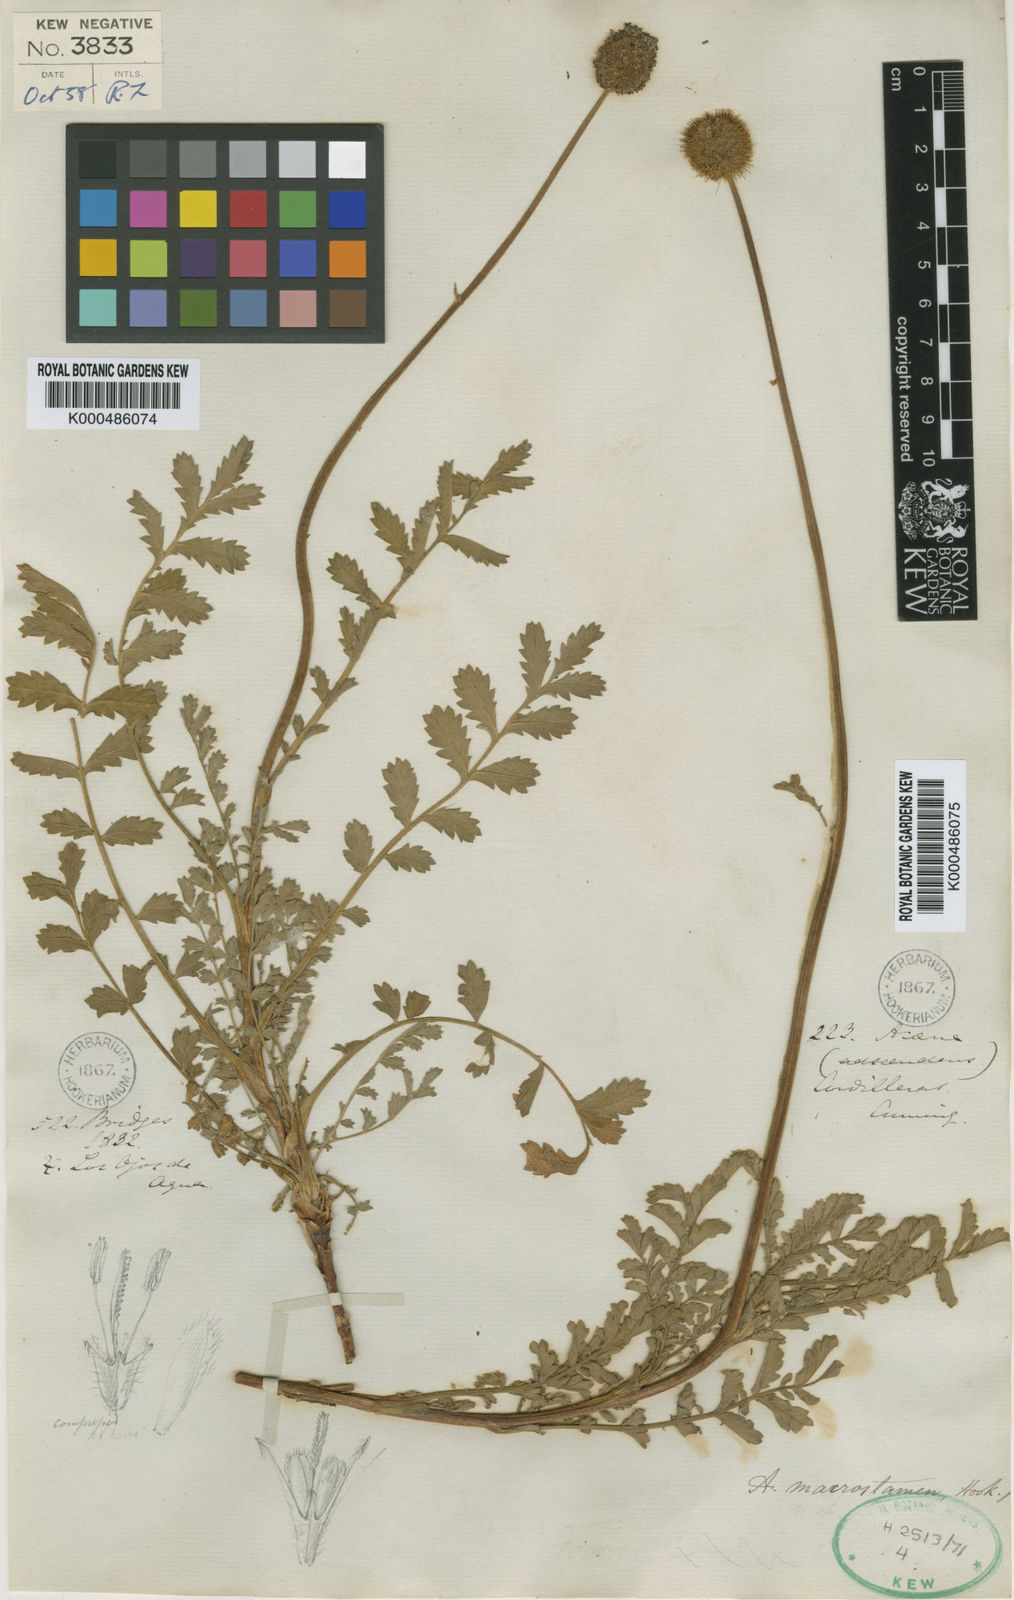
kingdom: Plantae
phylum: Tracheophyta
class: Magnoliopsida
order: Rosales
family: Rosaceae
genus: Acaena
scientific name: Acaena magellanica
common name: New zealand burr
